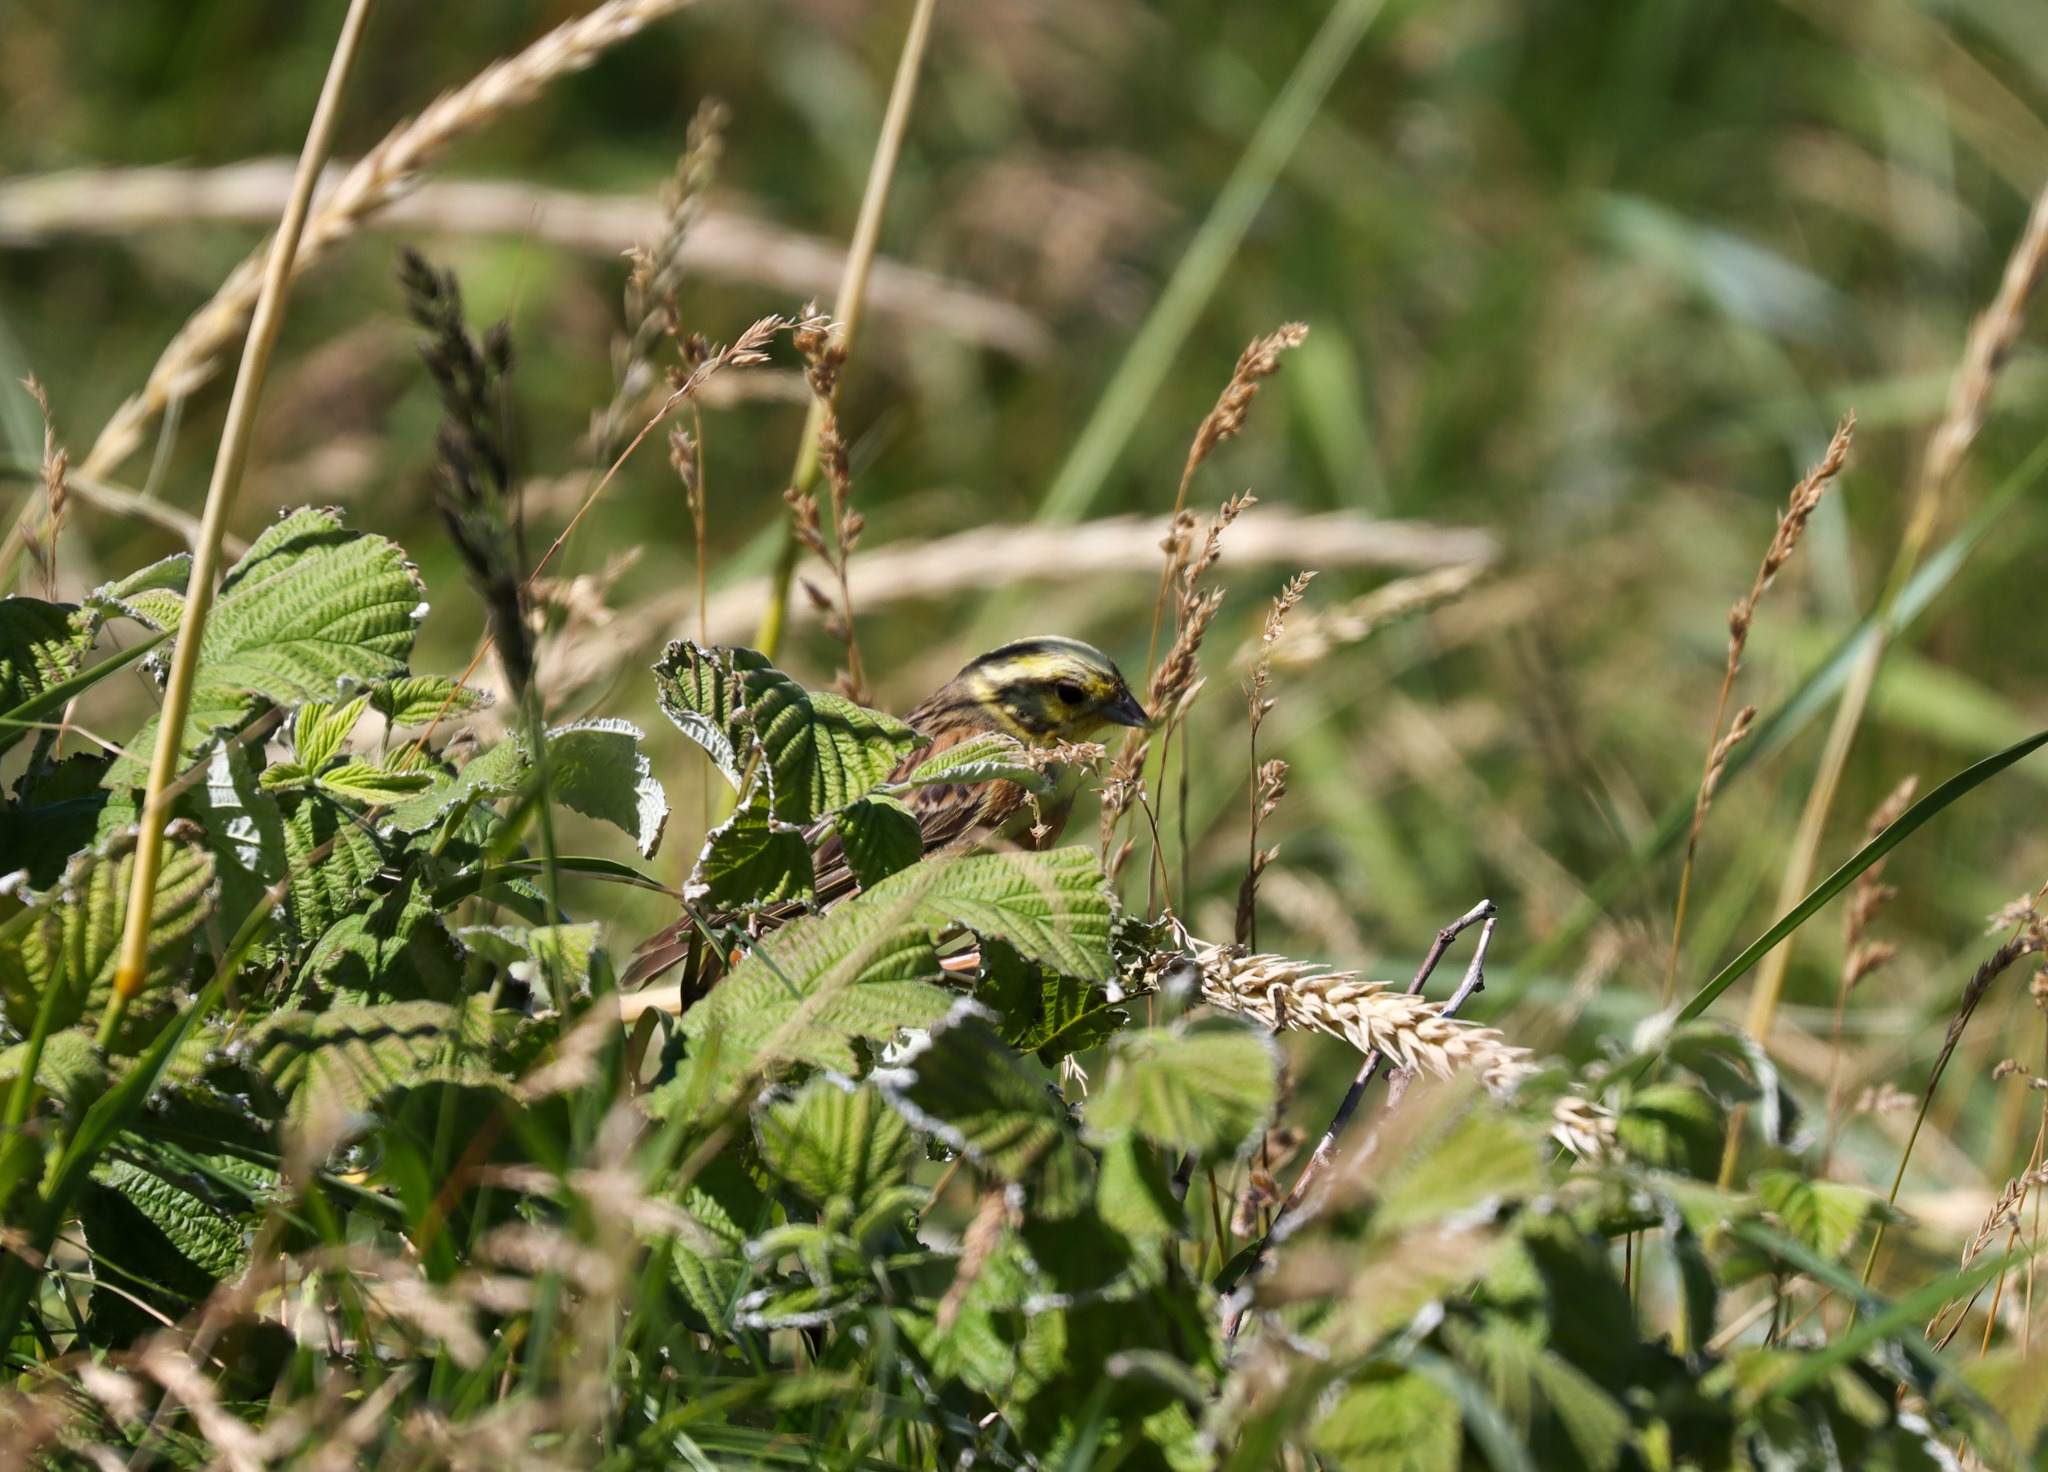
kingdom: Animalia
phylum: Chordata
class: Aves
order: Passeriformes
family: Emberizidae
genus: Emberiza
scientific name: Emberiza citrinella
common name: Gulspurv
